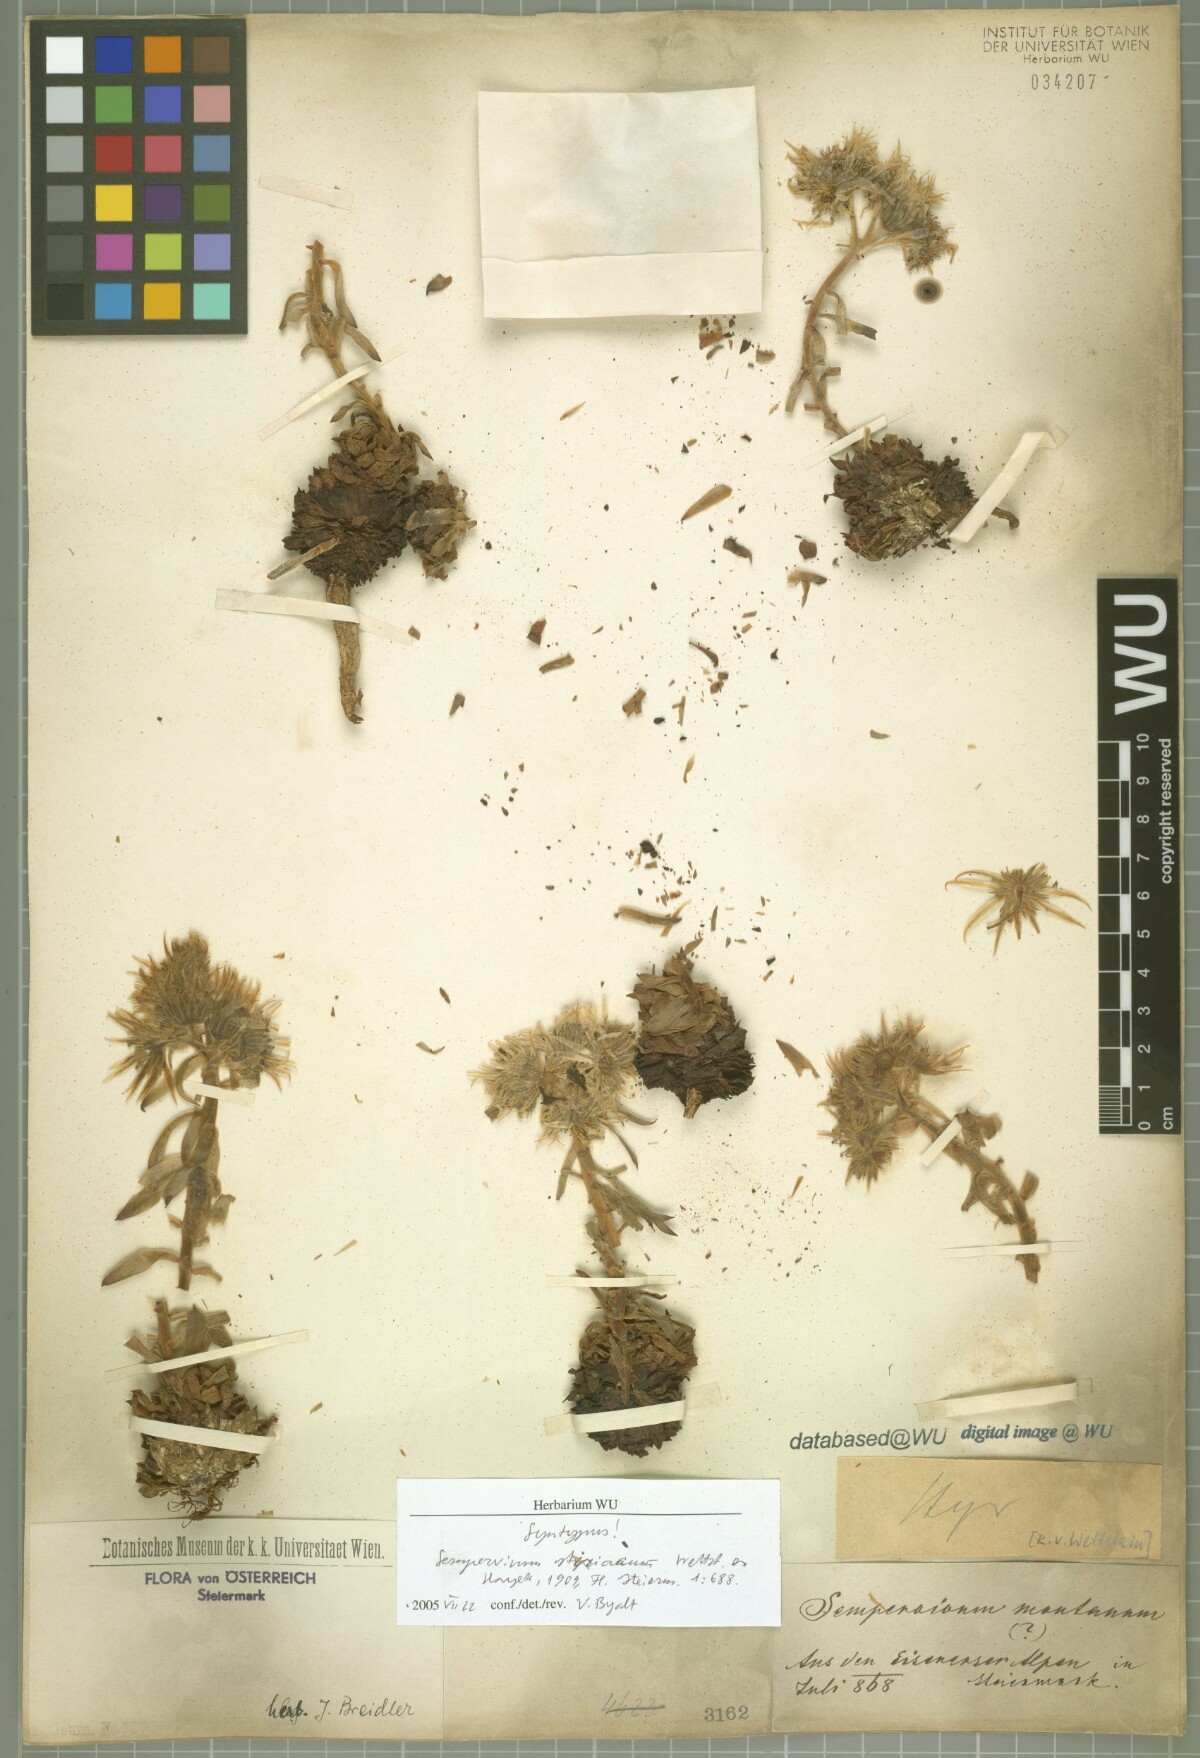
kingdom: Plantae
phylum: Tracheophyta
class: Magnoliopsida
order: Saxifragales
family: Crassulaceae
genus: Sempervivum
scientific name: Sempervivum montanum
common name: Mountain house-leek
